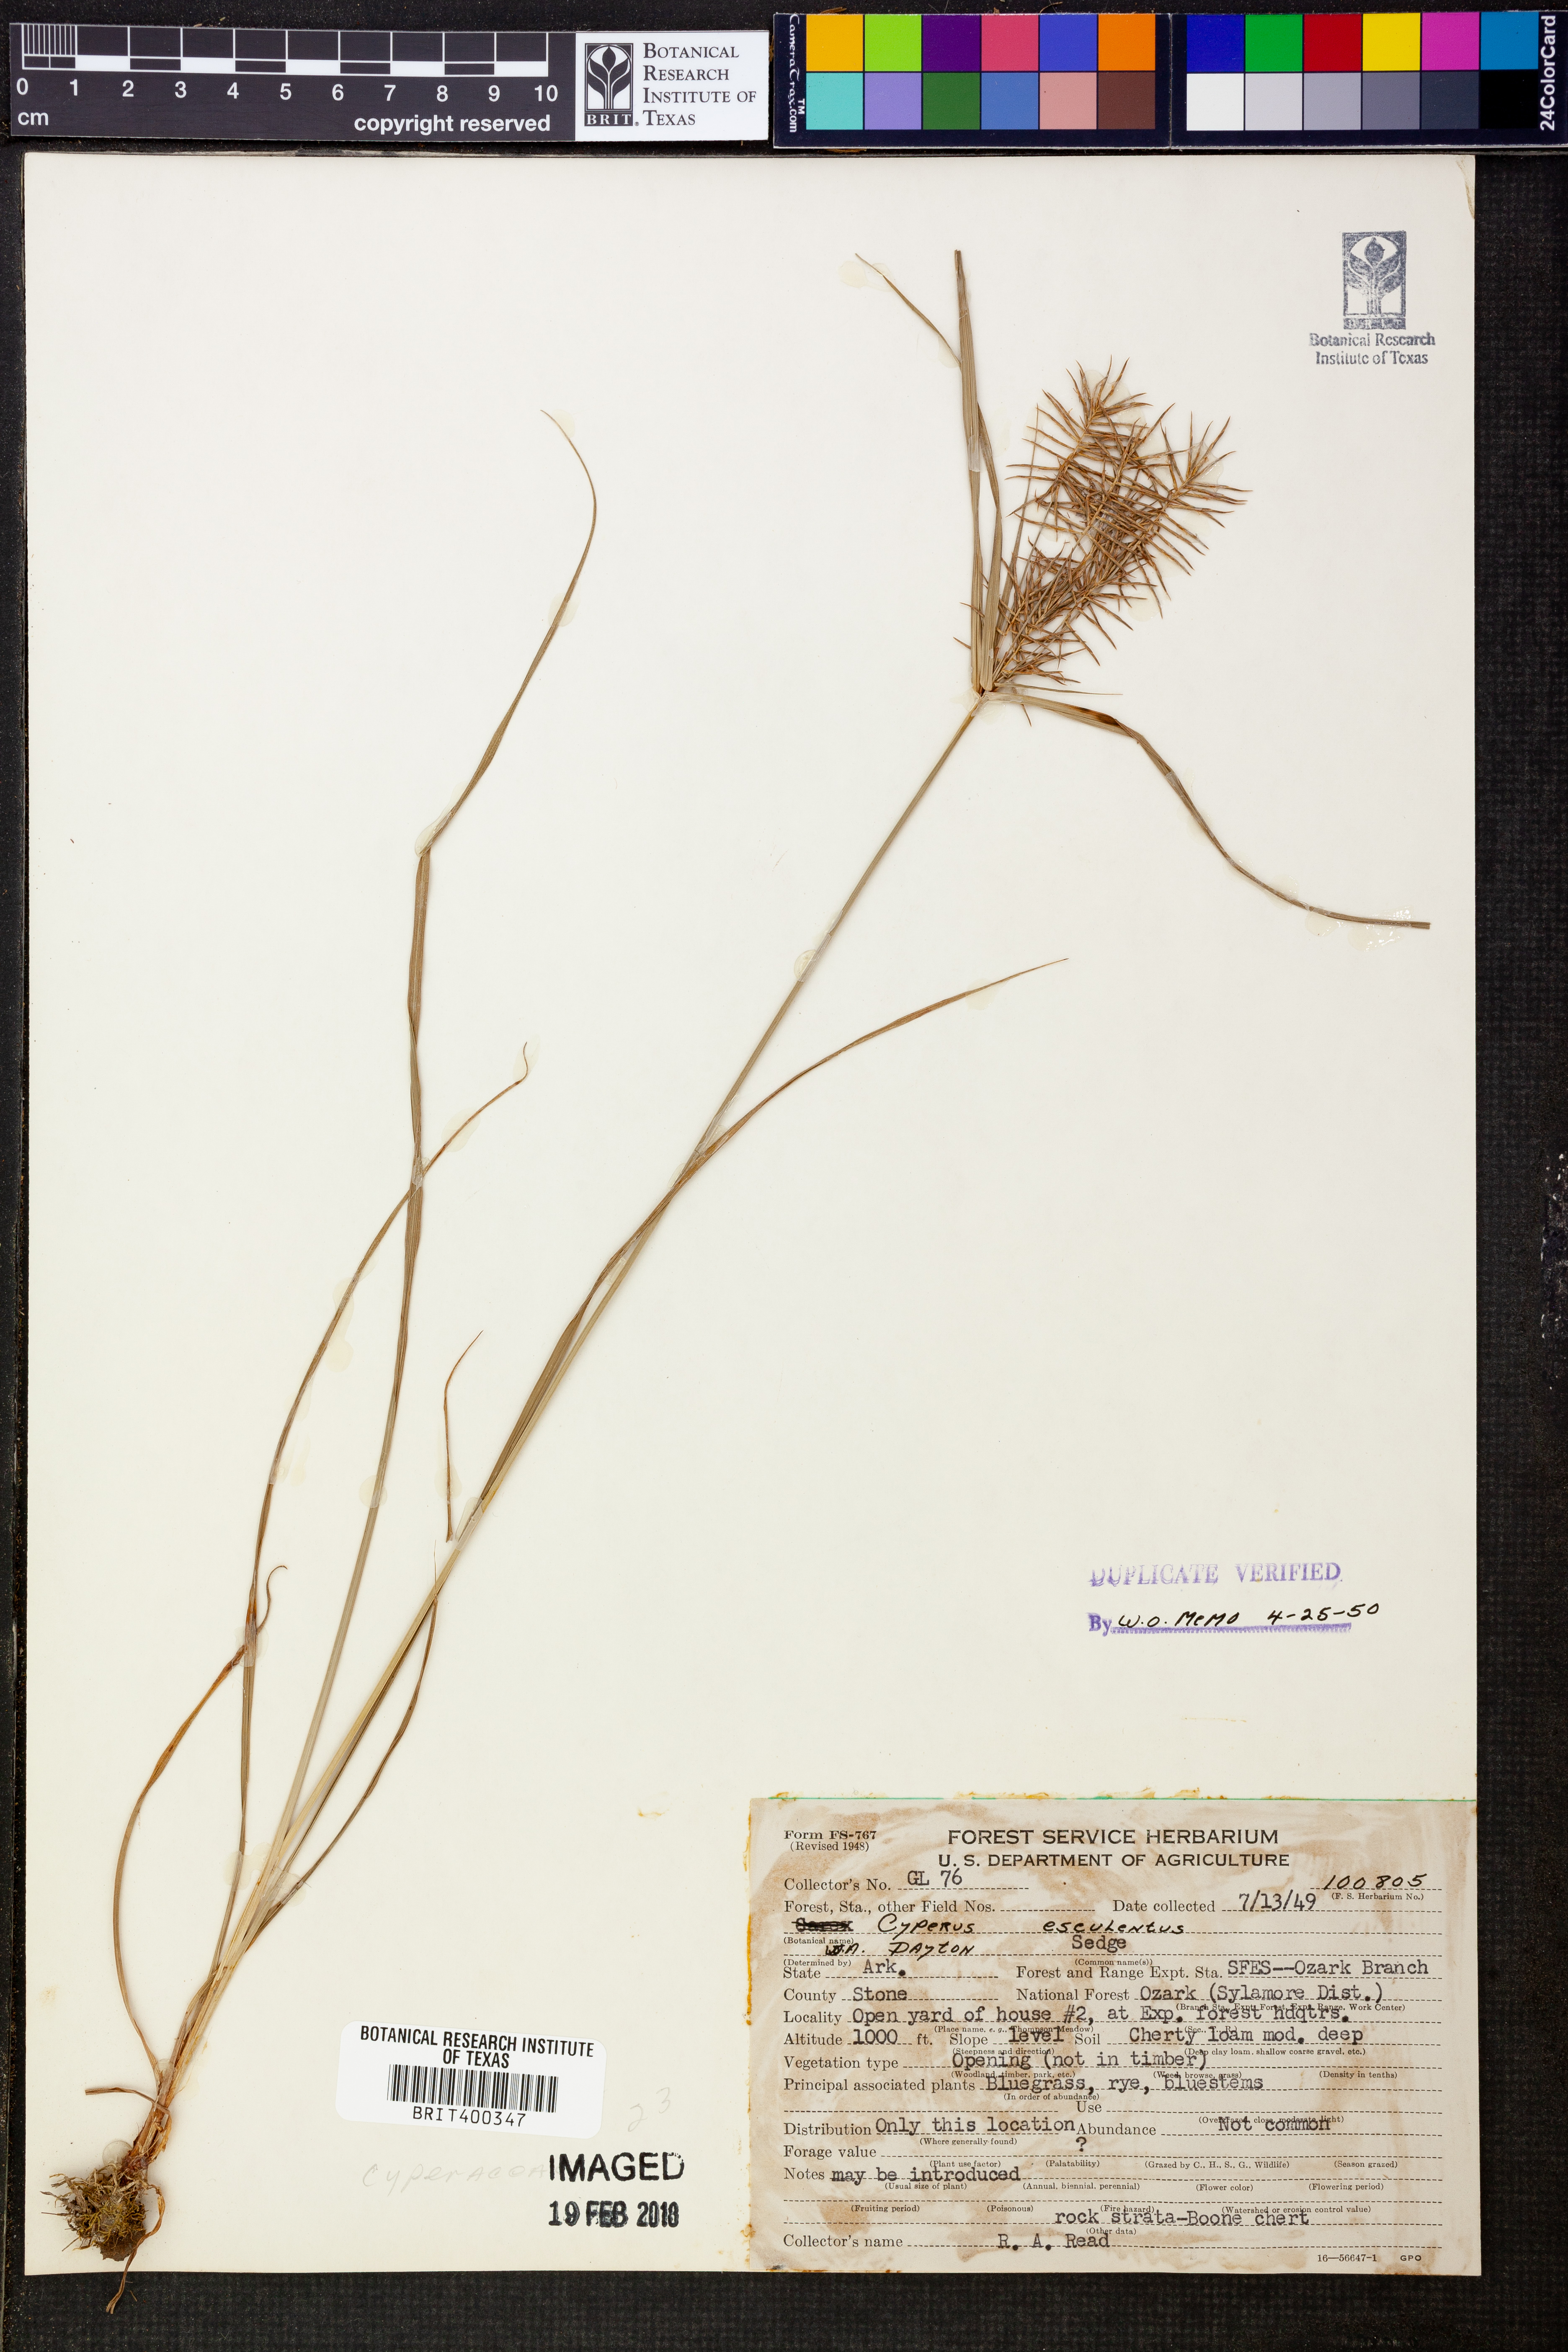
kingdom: Plantae
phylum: Tracheophyta
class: Liliopsida
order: Poales
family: Cyperaceae
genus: Cyperus
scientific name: Cyperus esculentus
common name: Yellow nutsedge
